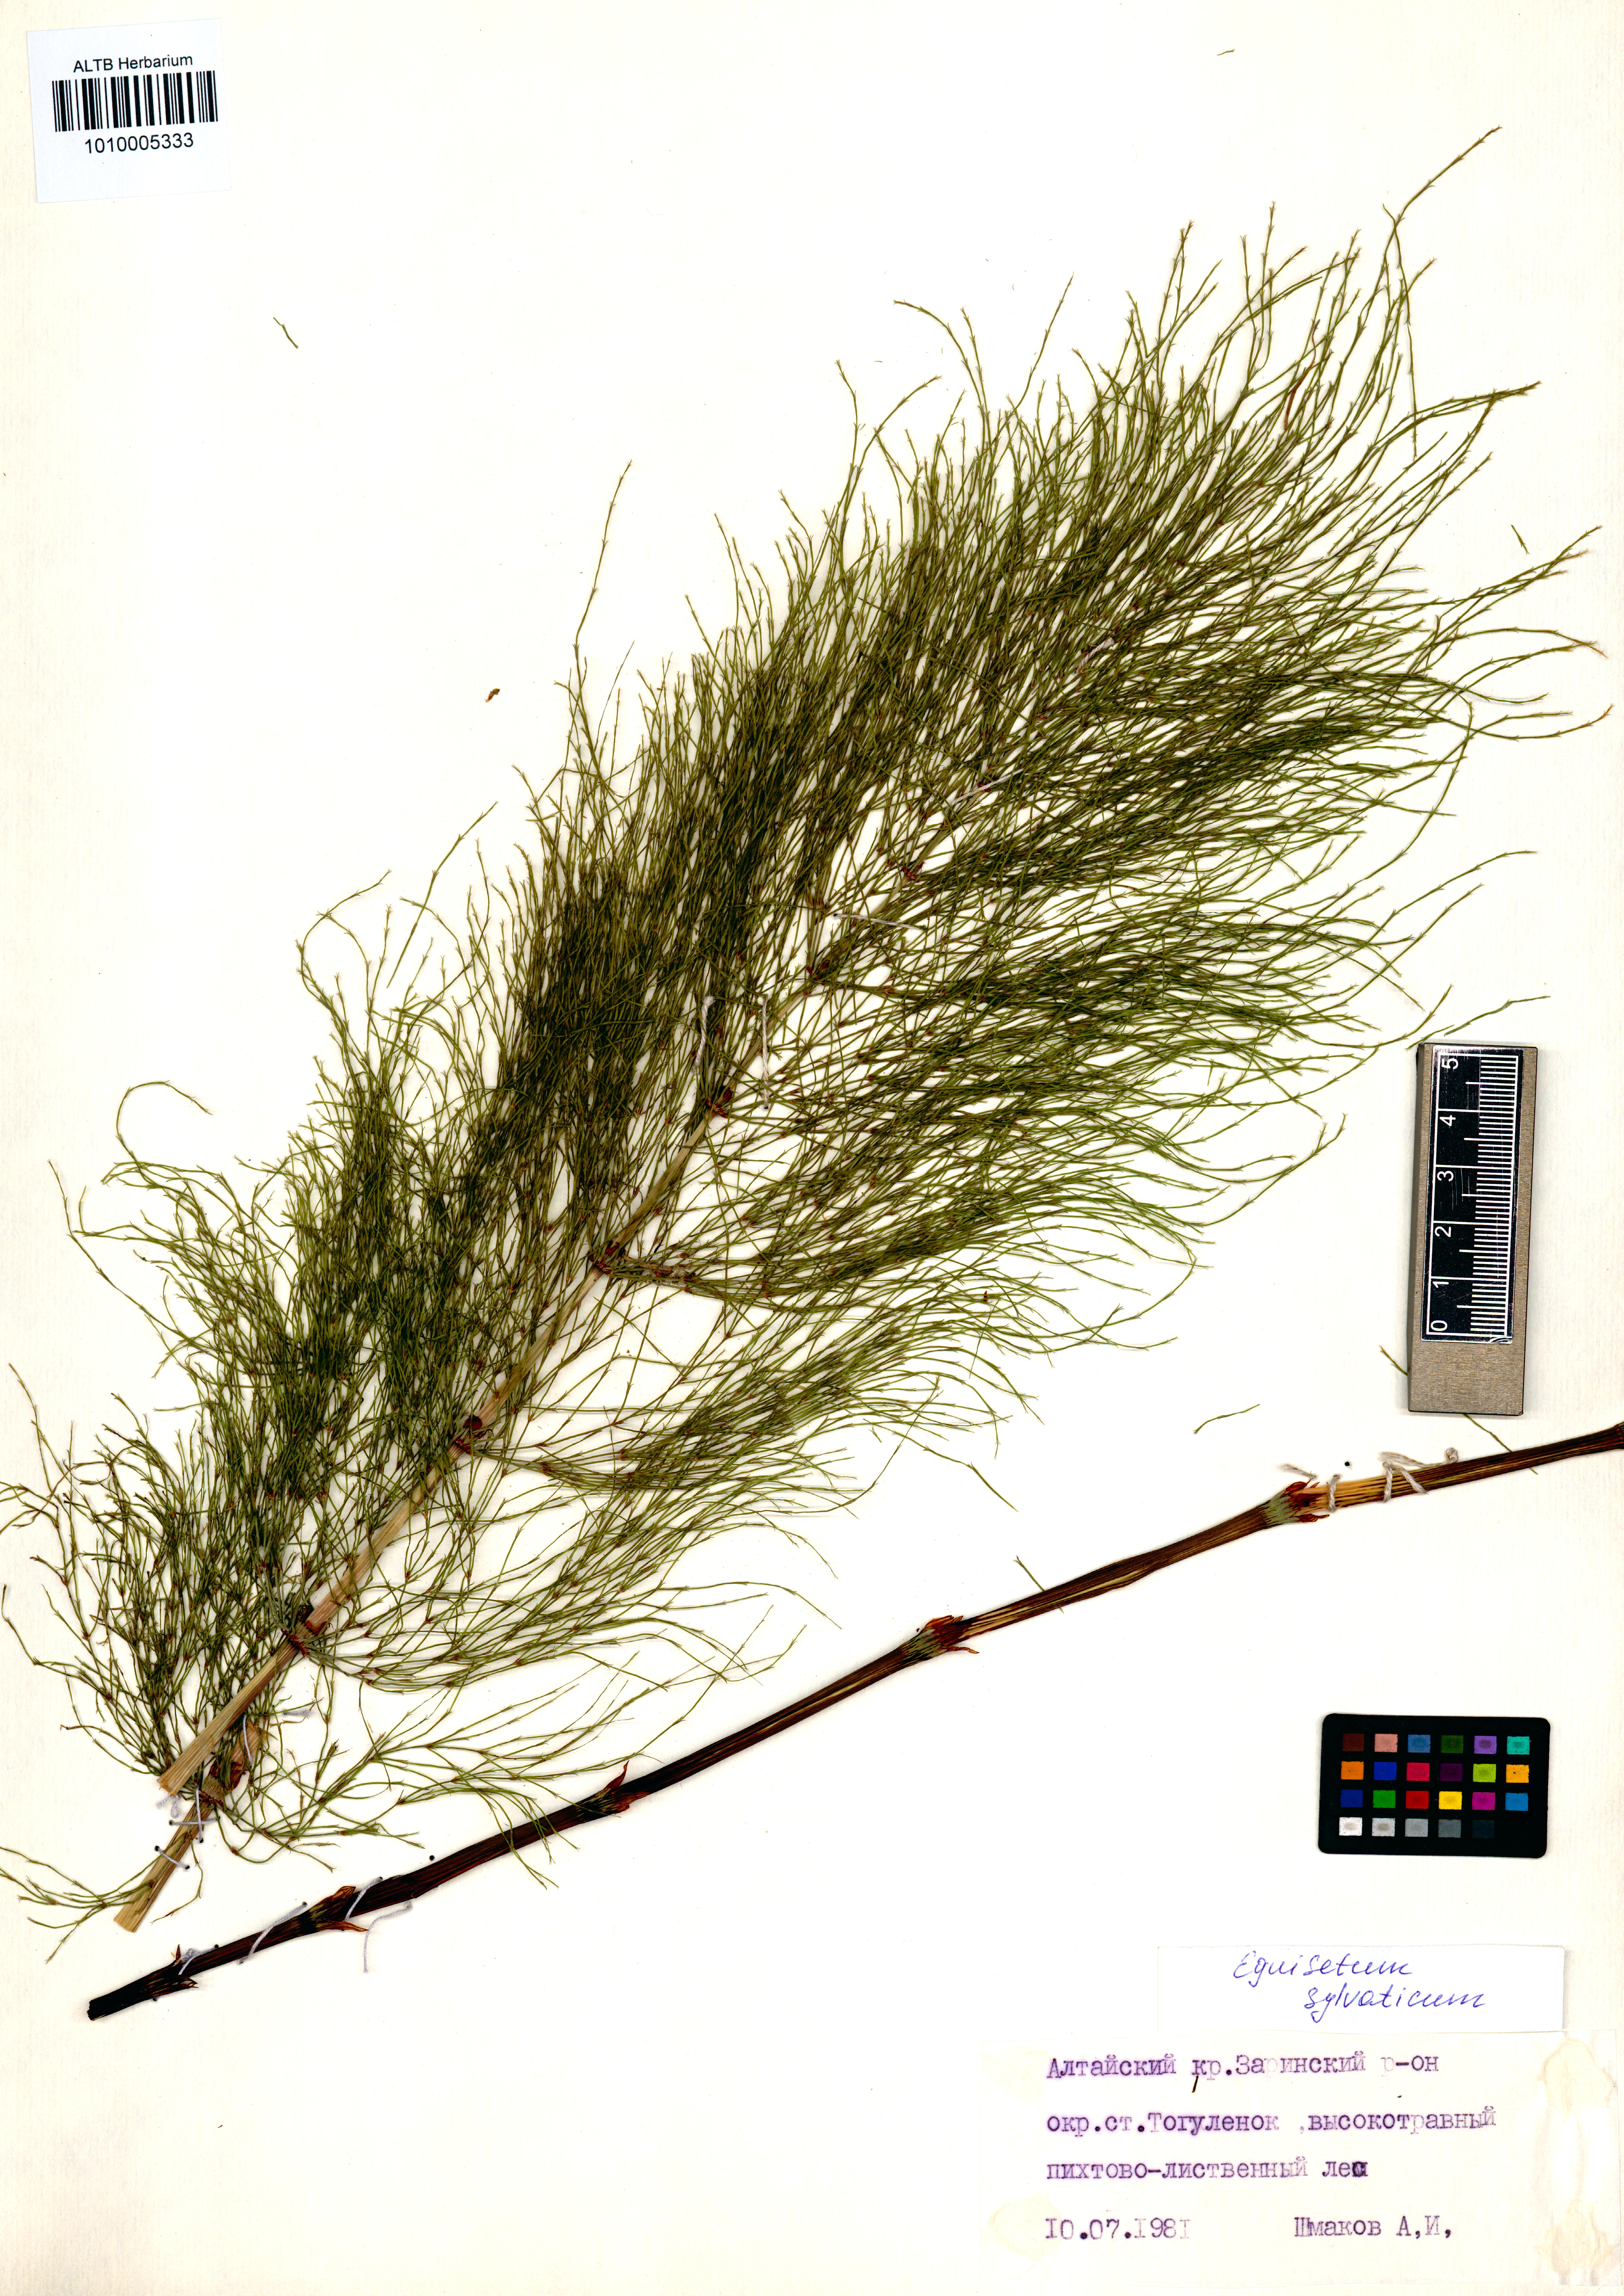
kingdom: Plantae
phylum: Tracheophyta
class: Polypodiopsida
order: Equisetales
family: Equisetaceae
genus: Equisetum
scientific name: Equisetum sylvaticum
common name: Wood horsetail
